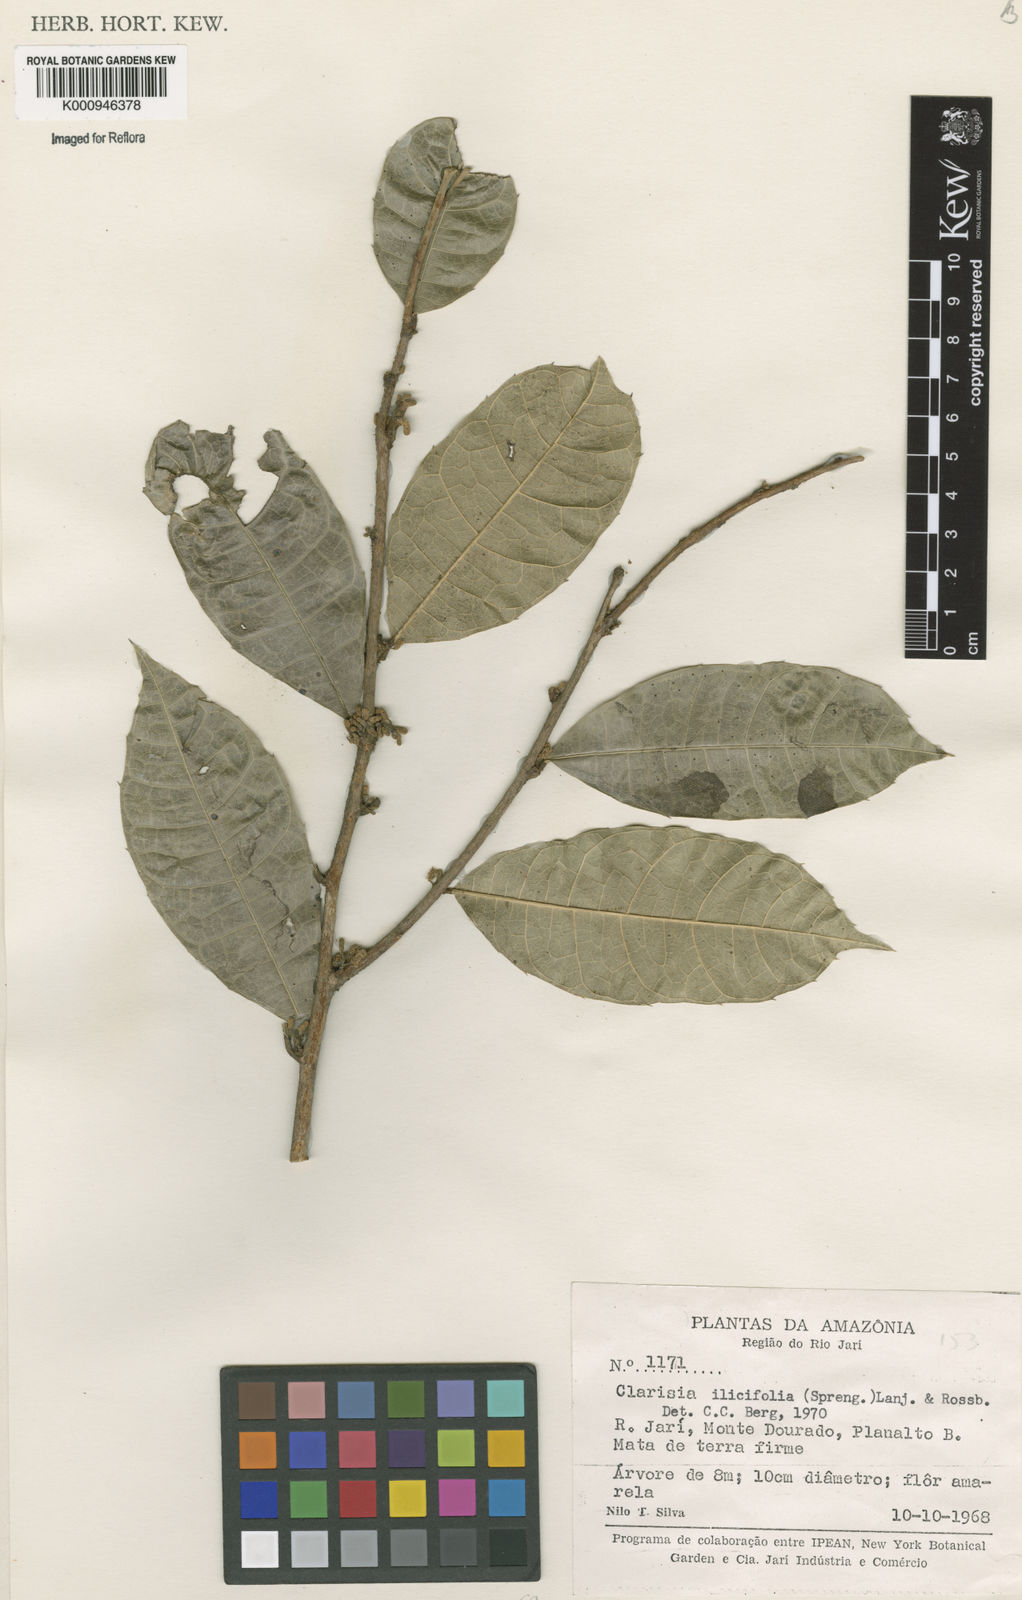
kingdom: Plantae
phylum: Tracheophyta
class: Magnoliopsida
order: Rosales
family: Moraceae
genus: Clarisia
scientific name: Clarisia ilicifolia
